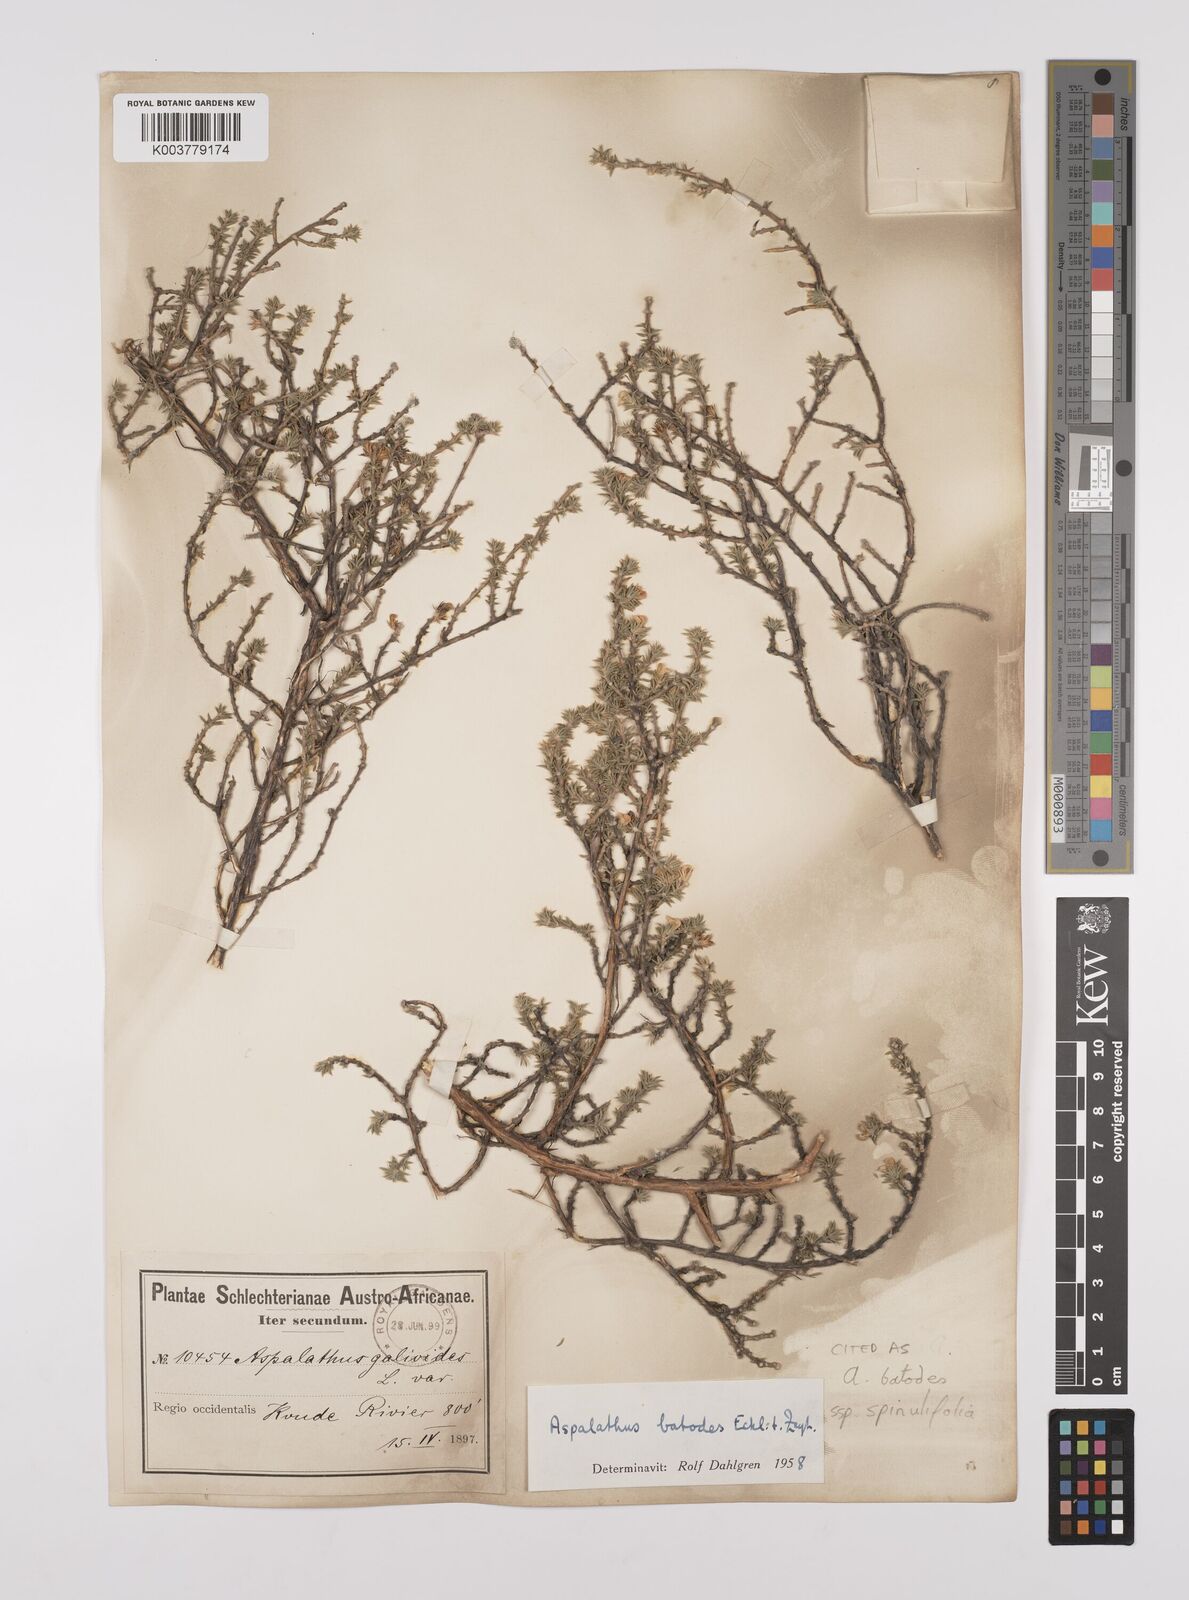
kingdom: Plantae
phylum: Tracheophyta
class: Magnoliopsida
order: Fabales
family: Fabaceae
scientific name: Fabaceae
